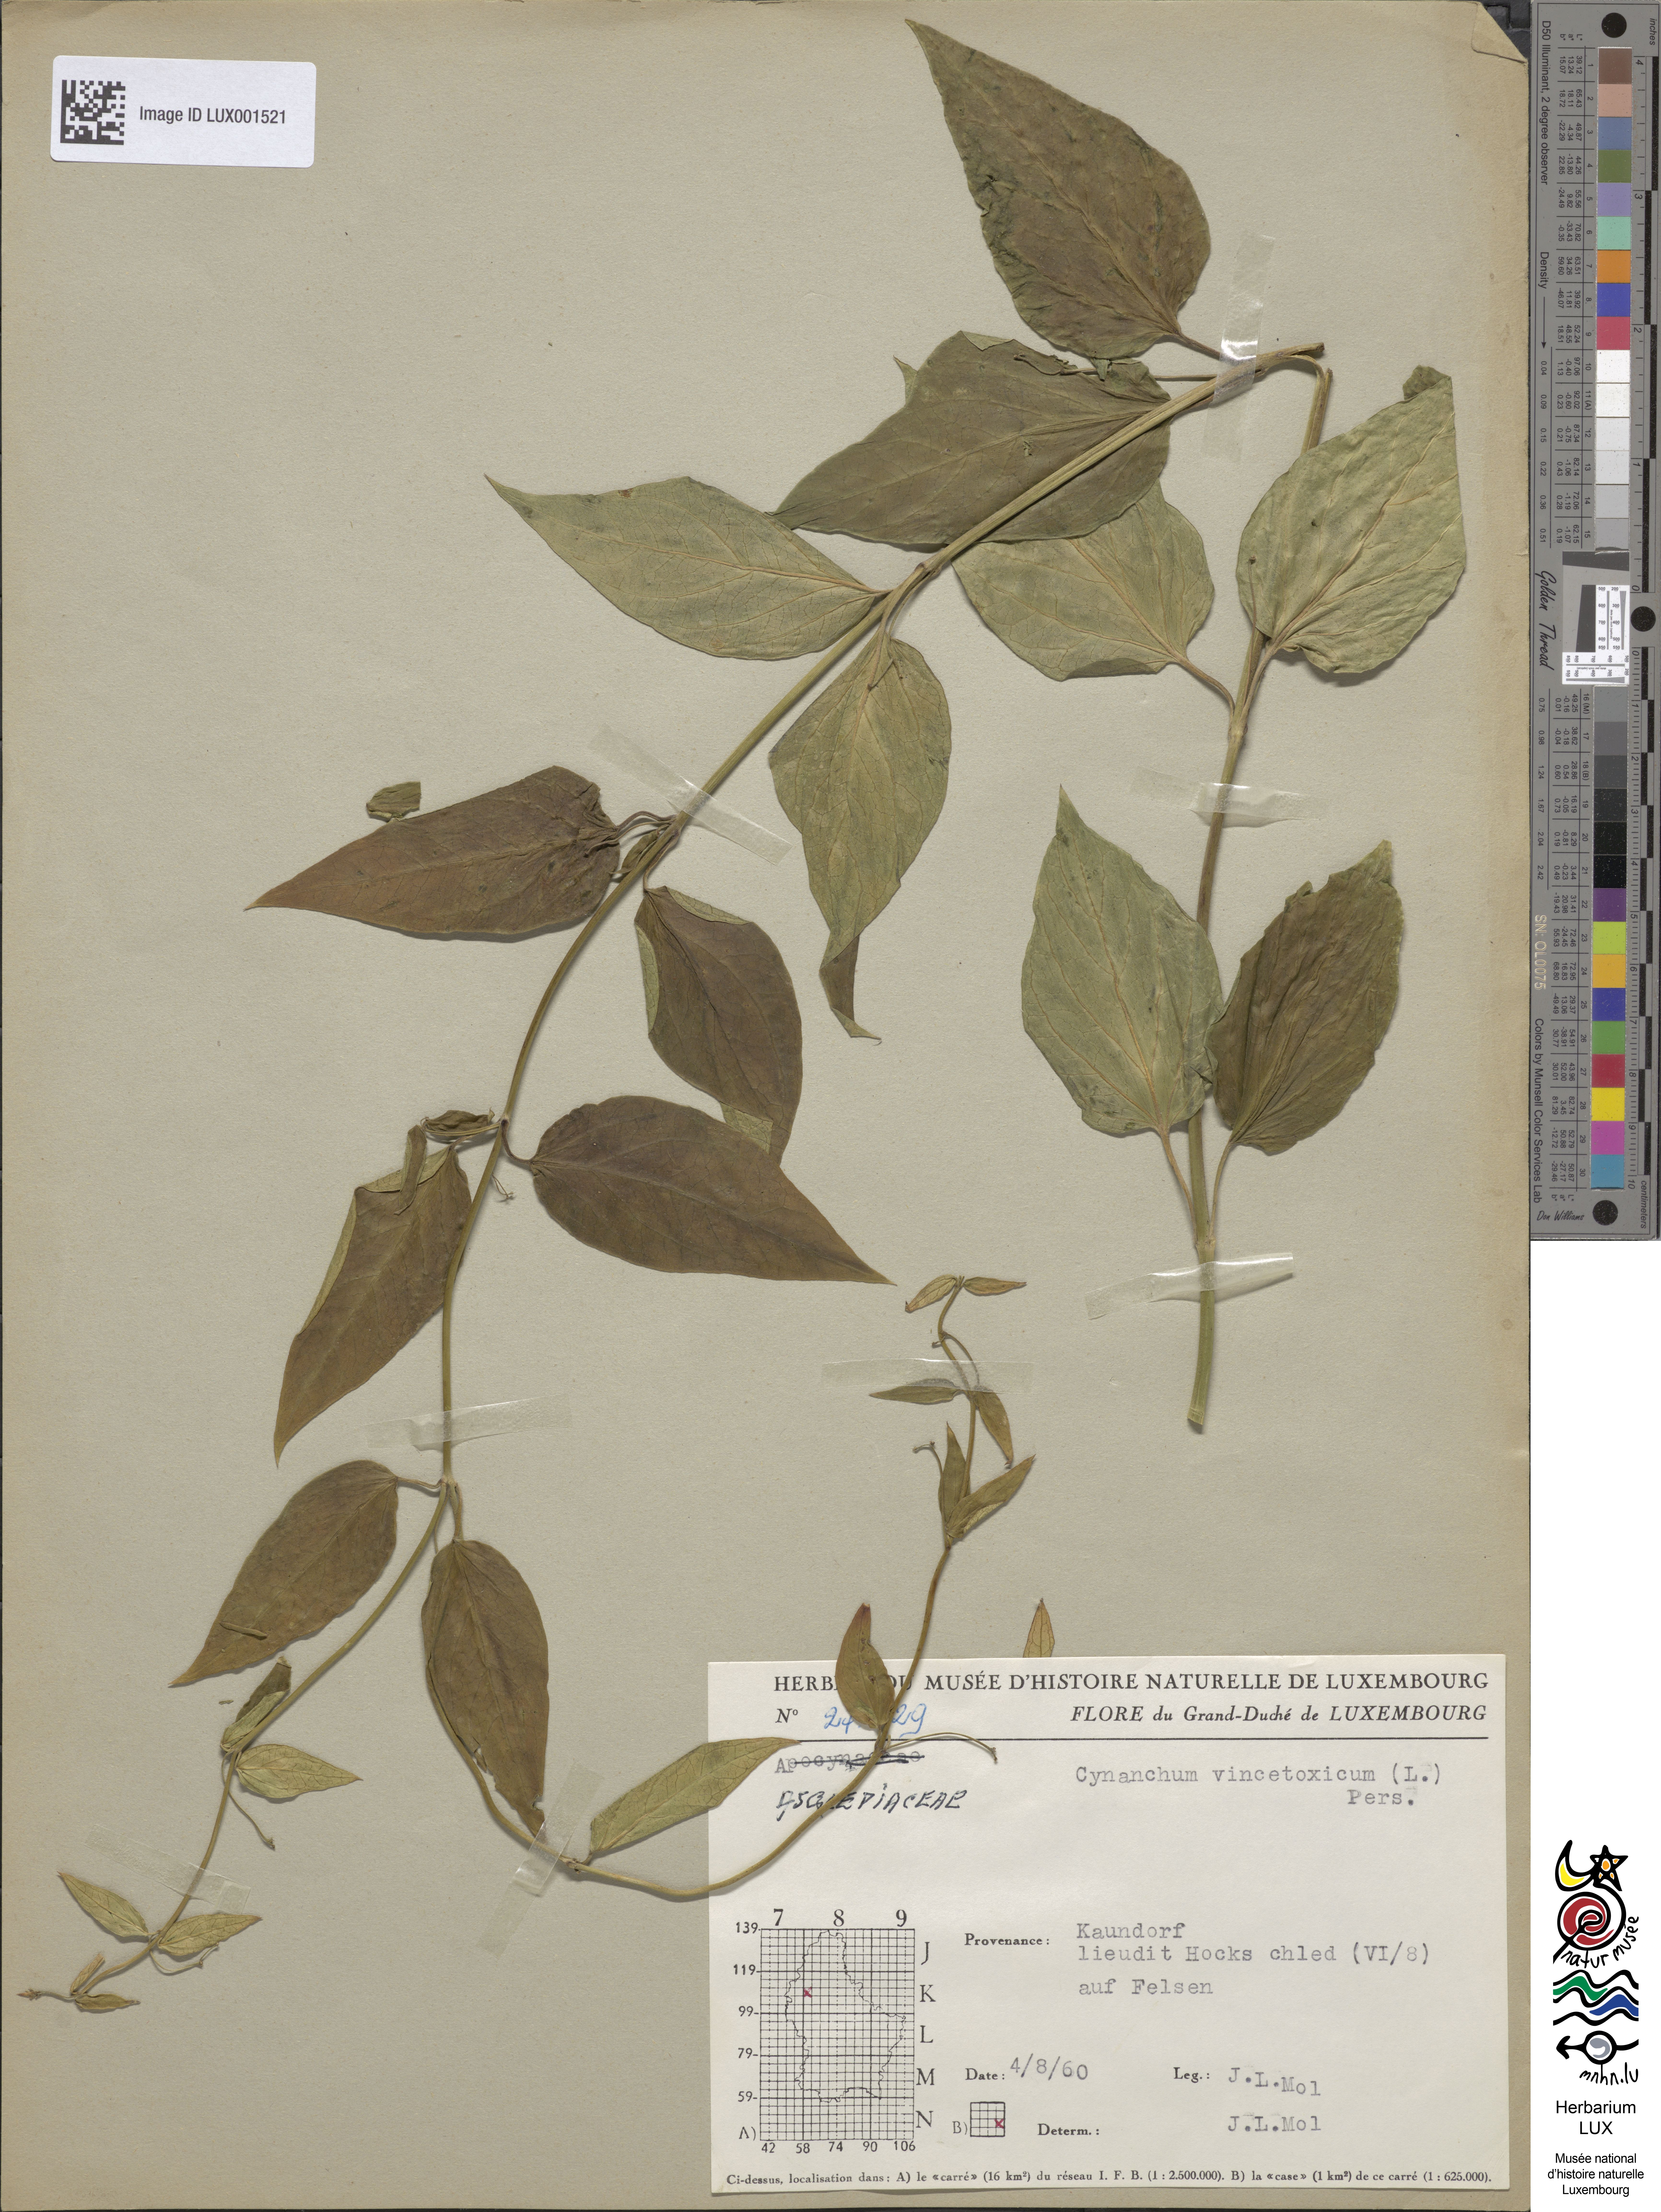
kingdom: Plantae
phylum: Tracheophyta
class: Magnoliopsida
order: Gentianales
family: Apocynaceae
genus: Vincetoxicum
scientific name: Vincetoxicum hirundinaria
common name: White swallowwort
